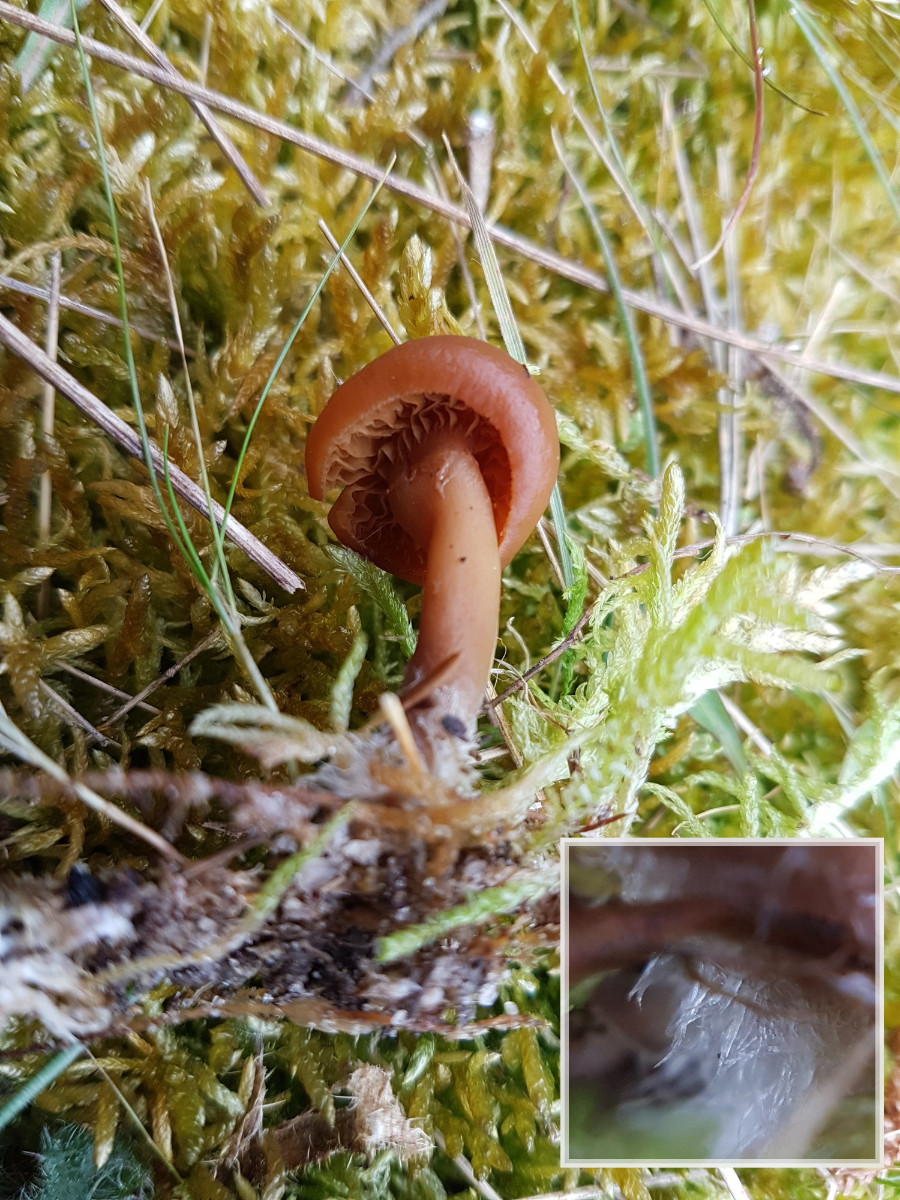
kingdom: Fungi
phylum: Basidiomycota
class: Agaricomycetes
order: Agaricales
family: Tubariaceae
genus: Tubaria
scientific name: Tubaria furfuracea
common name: kliddet fnughat
